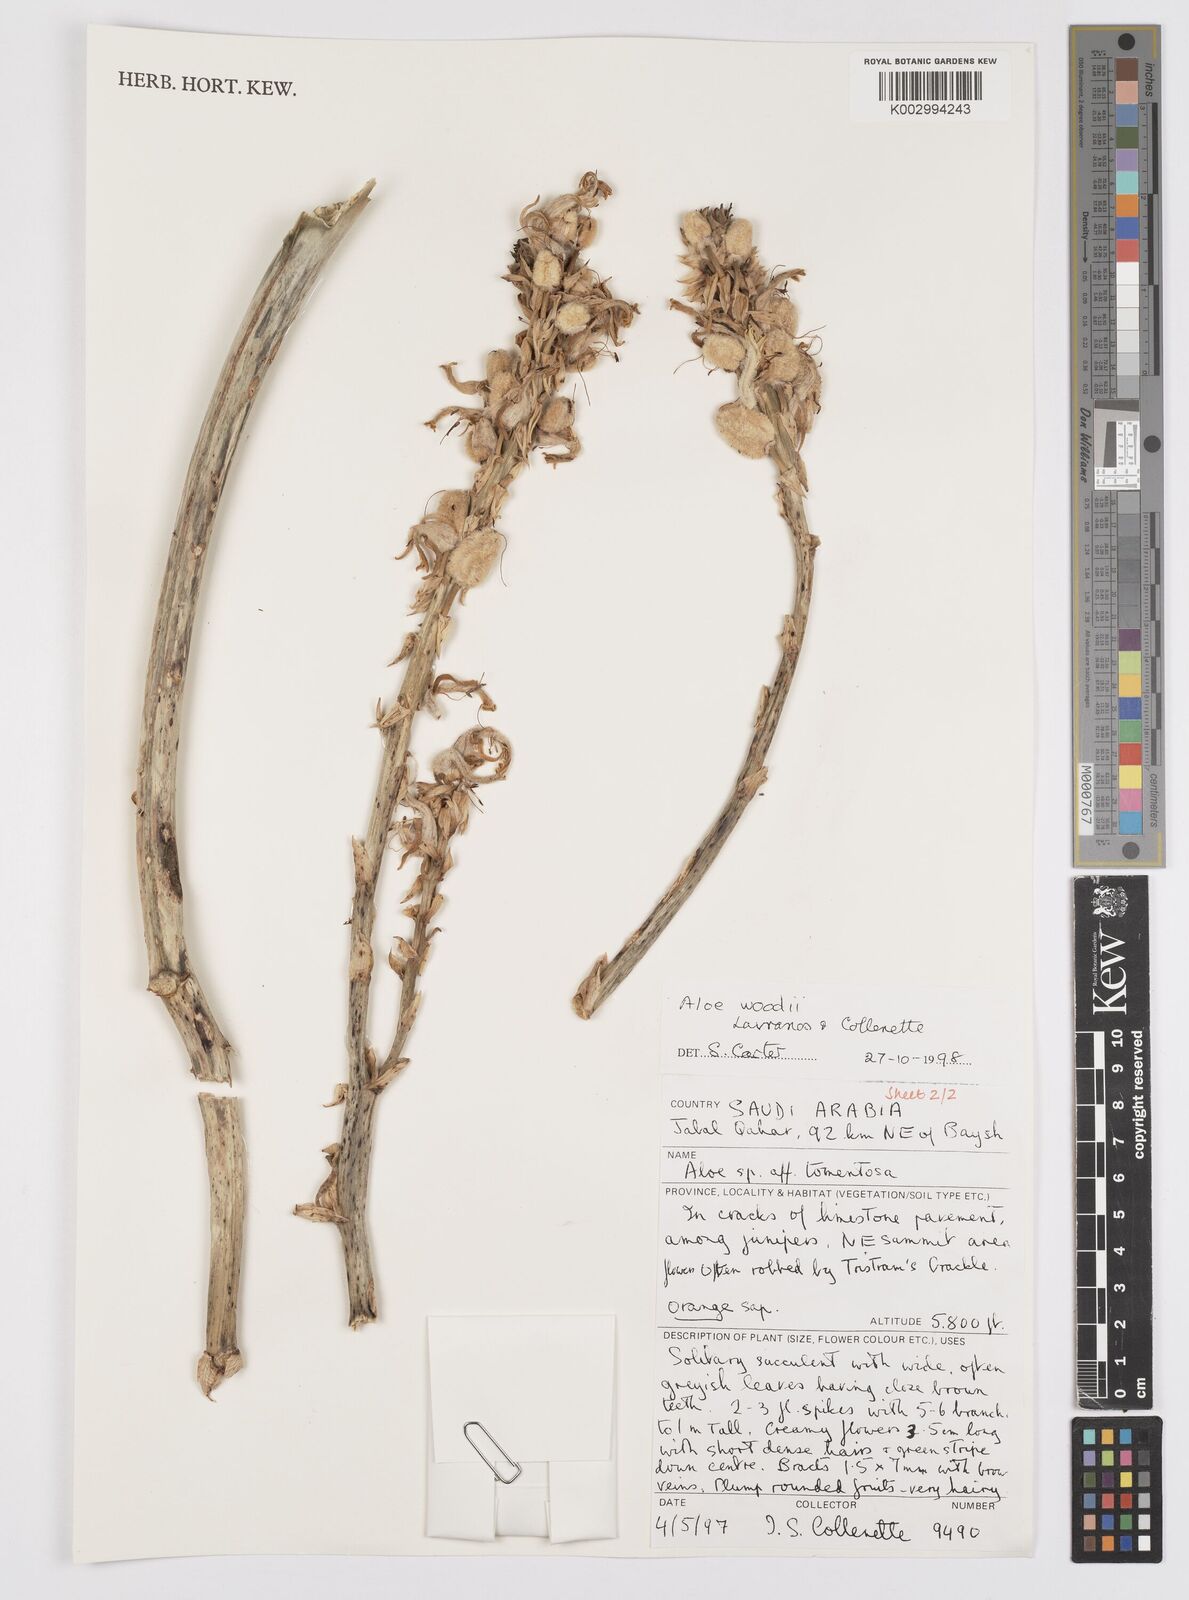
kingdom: Plantae
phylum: Tracheophyta
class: Liliopsida
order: Asparagales
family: Asphodelaceae
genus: Aloe
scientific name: Aloe woodii
